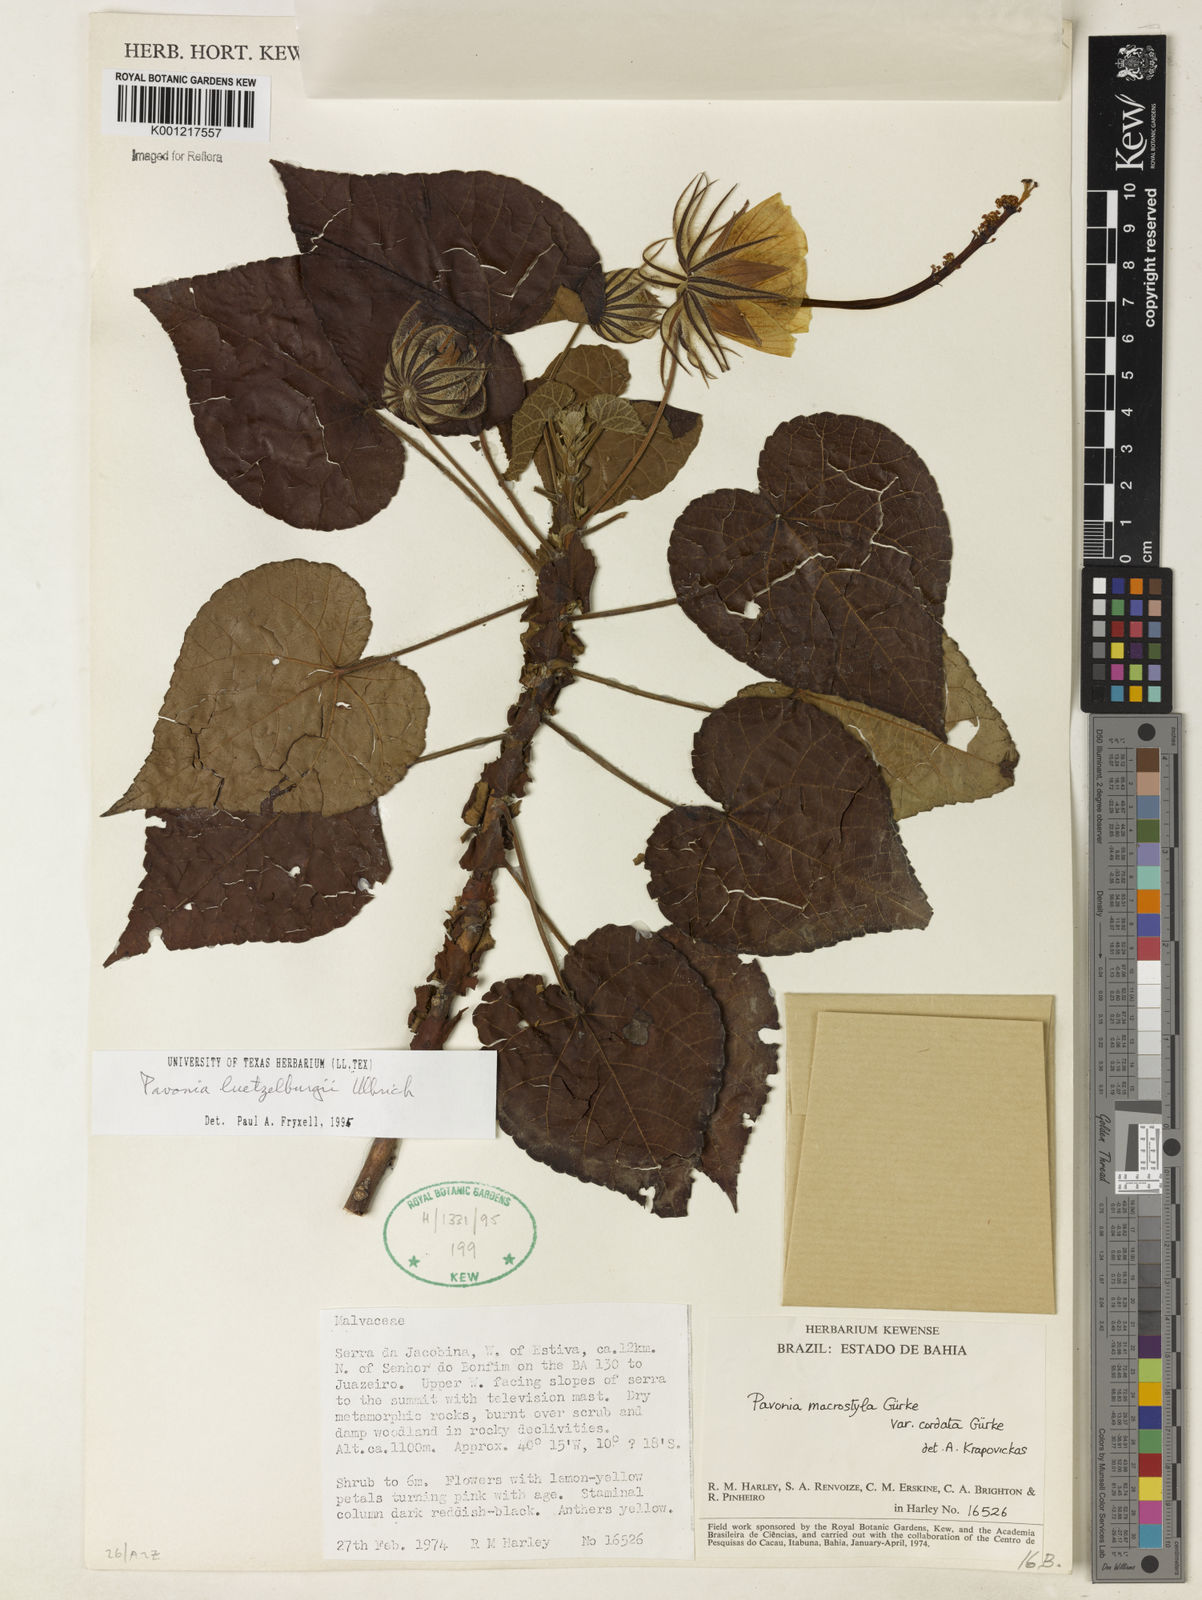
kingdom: Plantae
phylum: Tracheophyta
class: Magnoliopsida
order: Malvales
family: Malvaceae
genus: Pavonia
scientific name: Pavonia luetzelburgii
